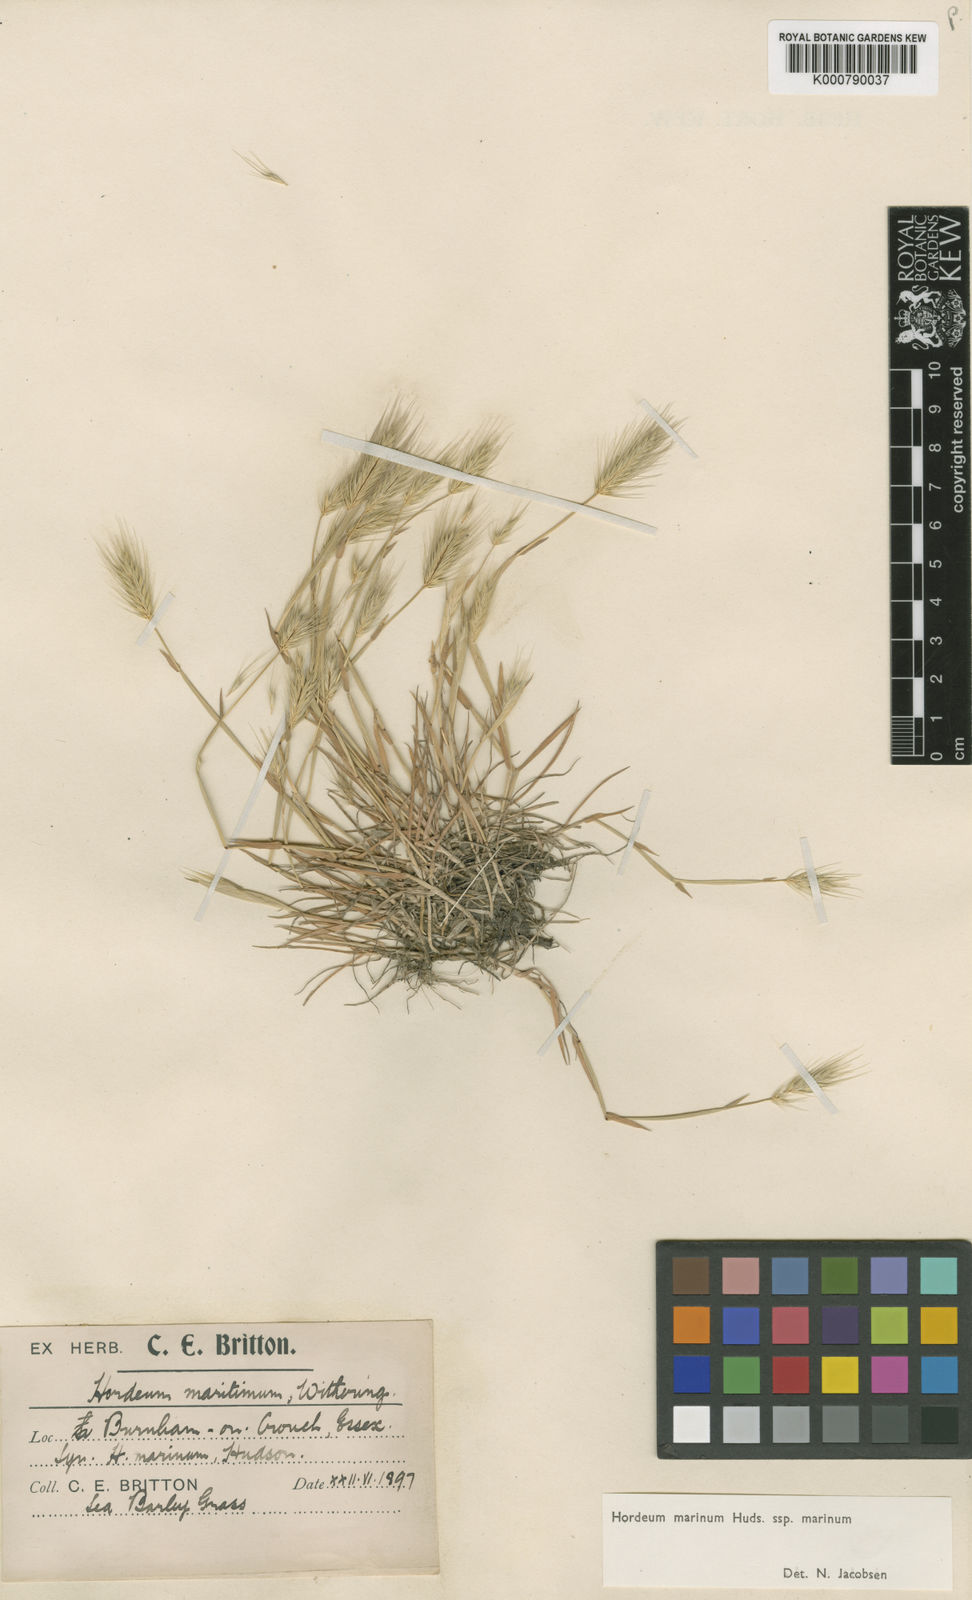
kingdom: Plantae
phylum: Tracheophyta
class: Liliopsida
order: Poales
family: Poaceae
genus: Hordeum
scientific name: Hordeum marinum
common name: Sea barley
